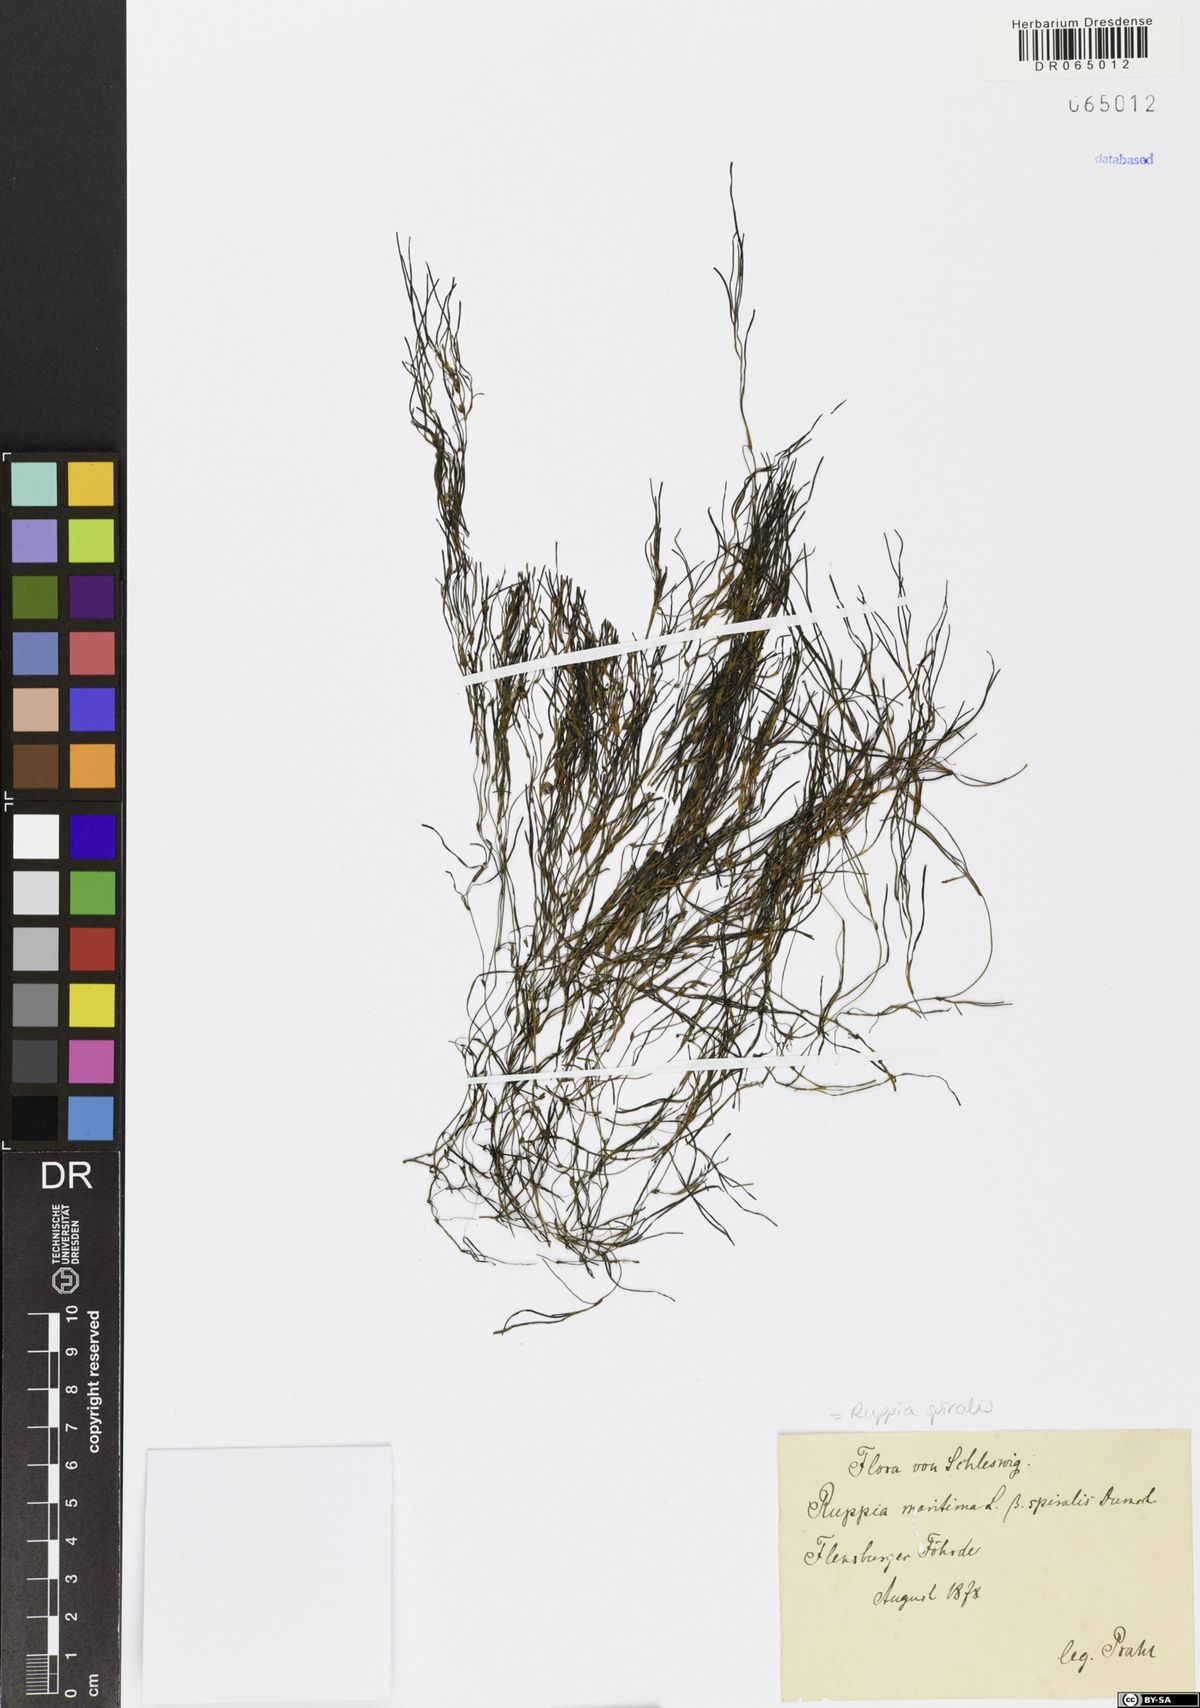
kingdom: Plantae
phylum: Tracheophyta
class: Liliopsida
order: Alismatales
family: Ruppiaceae
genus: Ruppia
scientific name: Ruppia cirrhosa
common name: Spiral tasselweed
